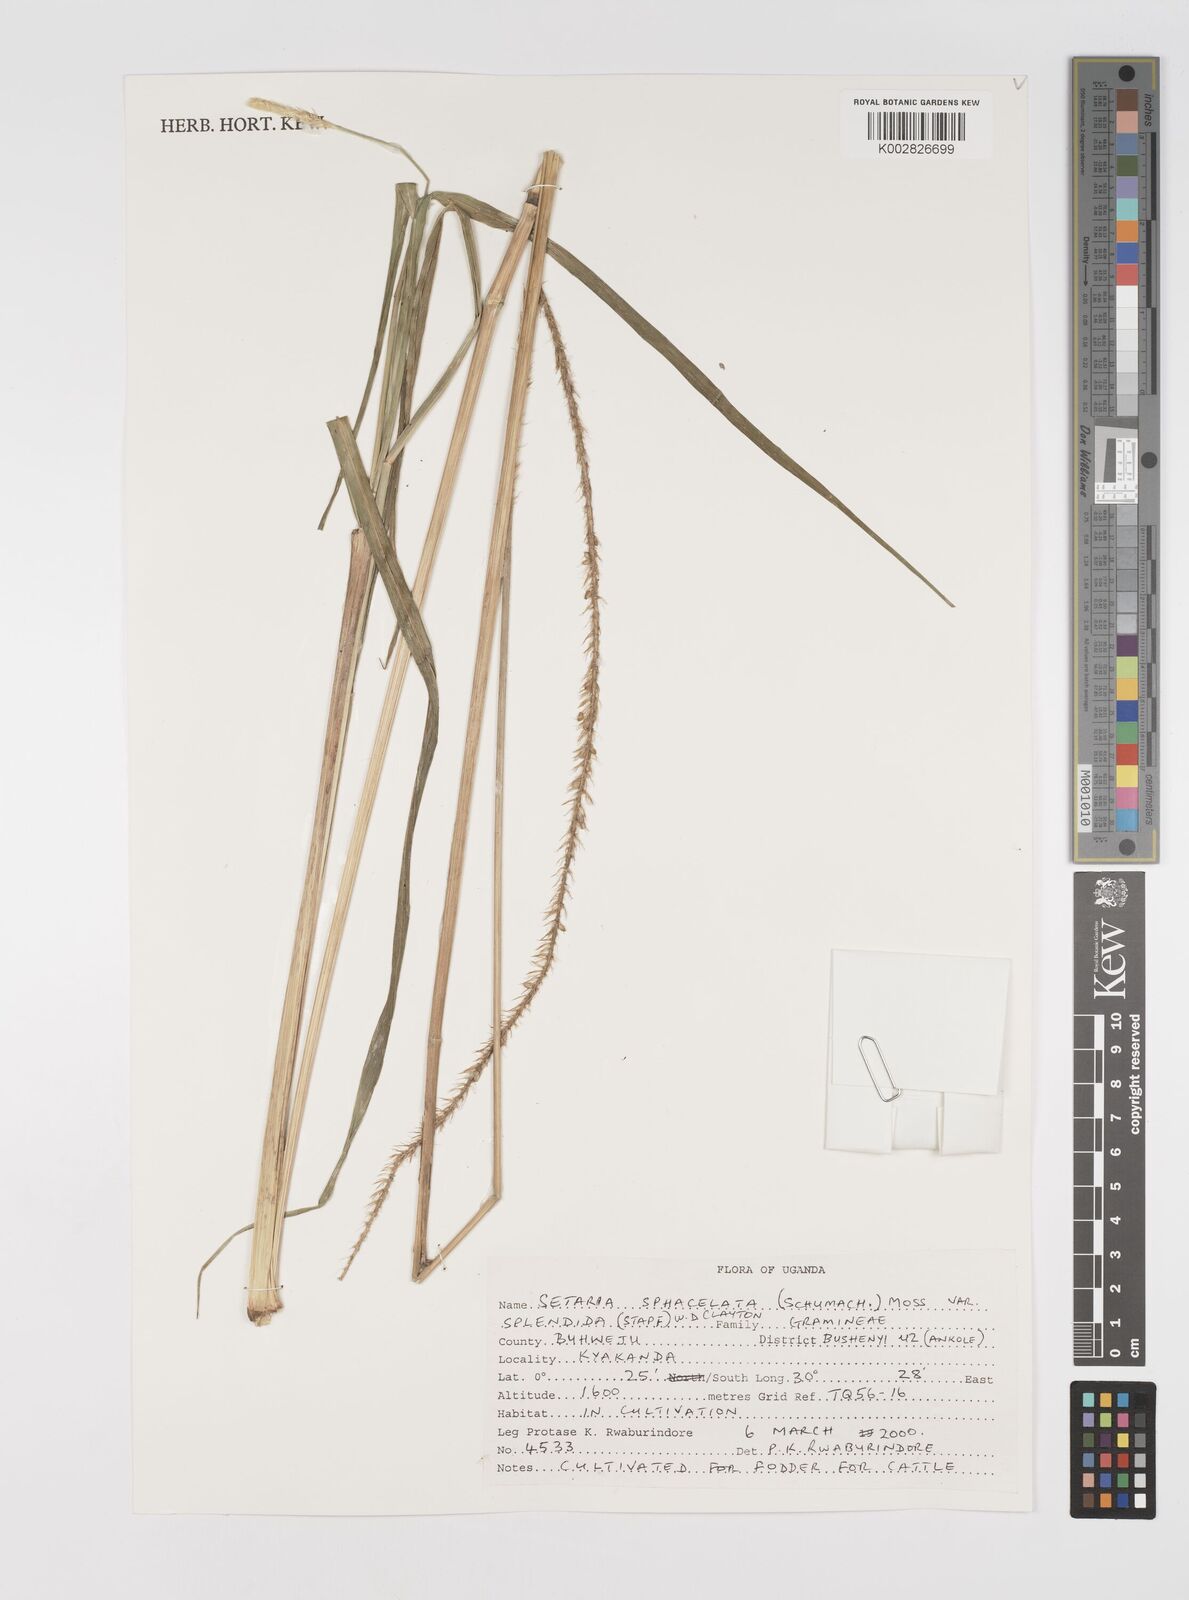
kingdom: Plantae
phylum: Tracheophyta
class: Liliopsida
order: Poales
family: Poaceae
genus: Setaria
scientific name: Setaria sphacelata
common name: African bristlegrass
